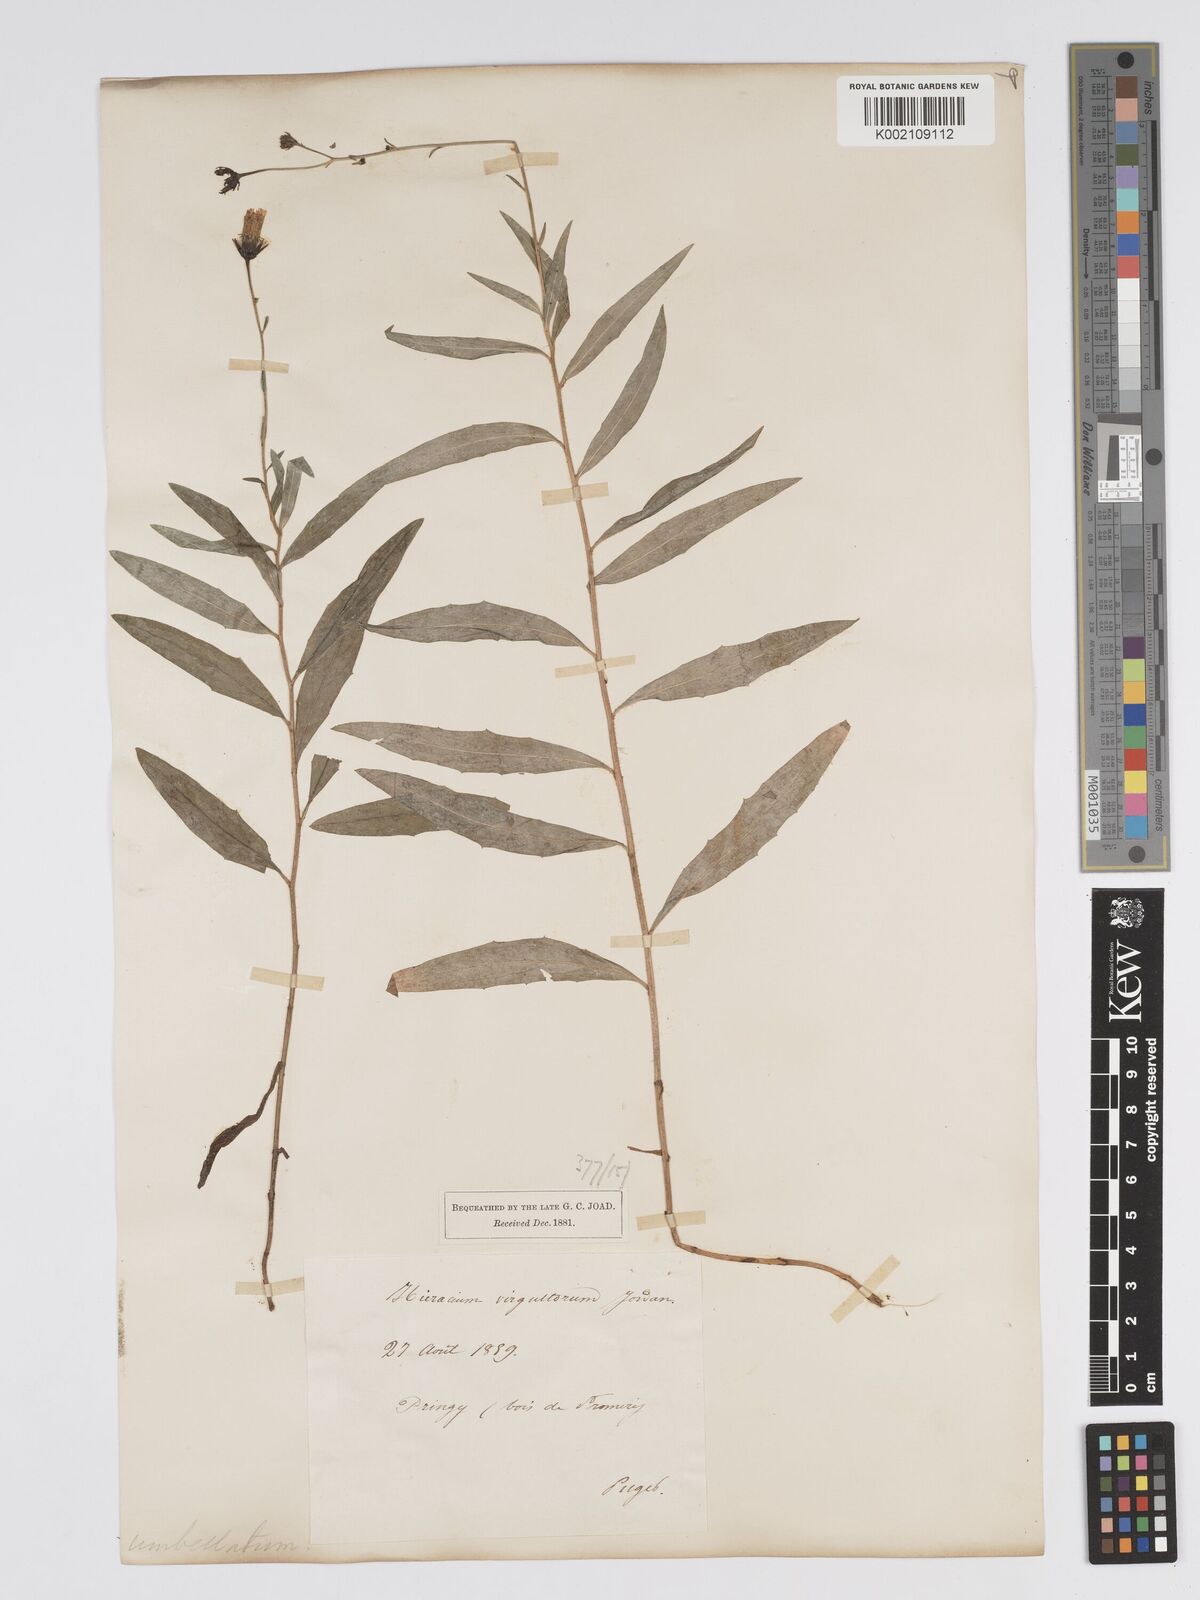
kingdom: Plantae
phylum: Tracheophyta
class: Magnoliopsida
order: Asterales
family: Asteraceae
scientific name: Asteraceae
